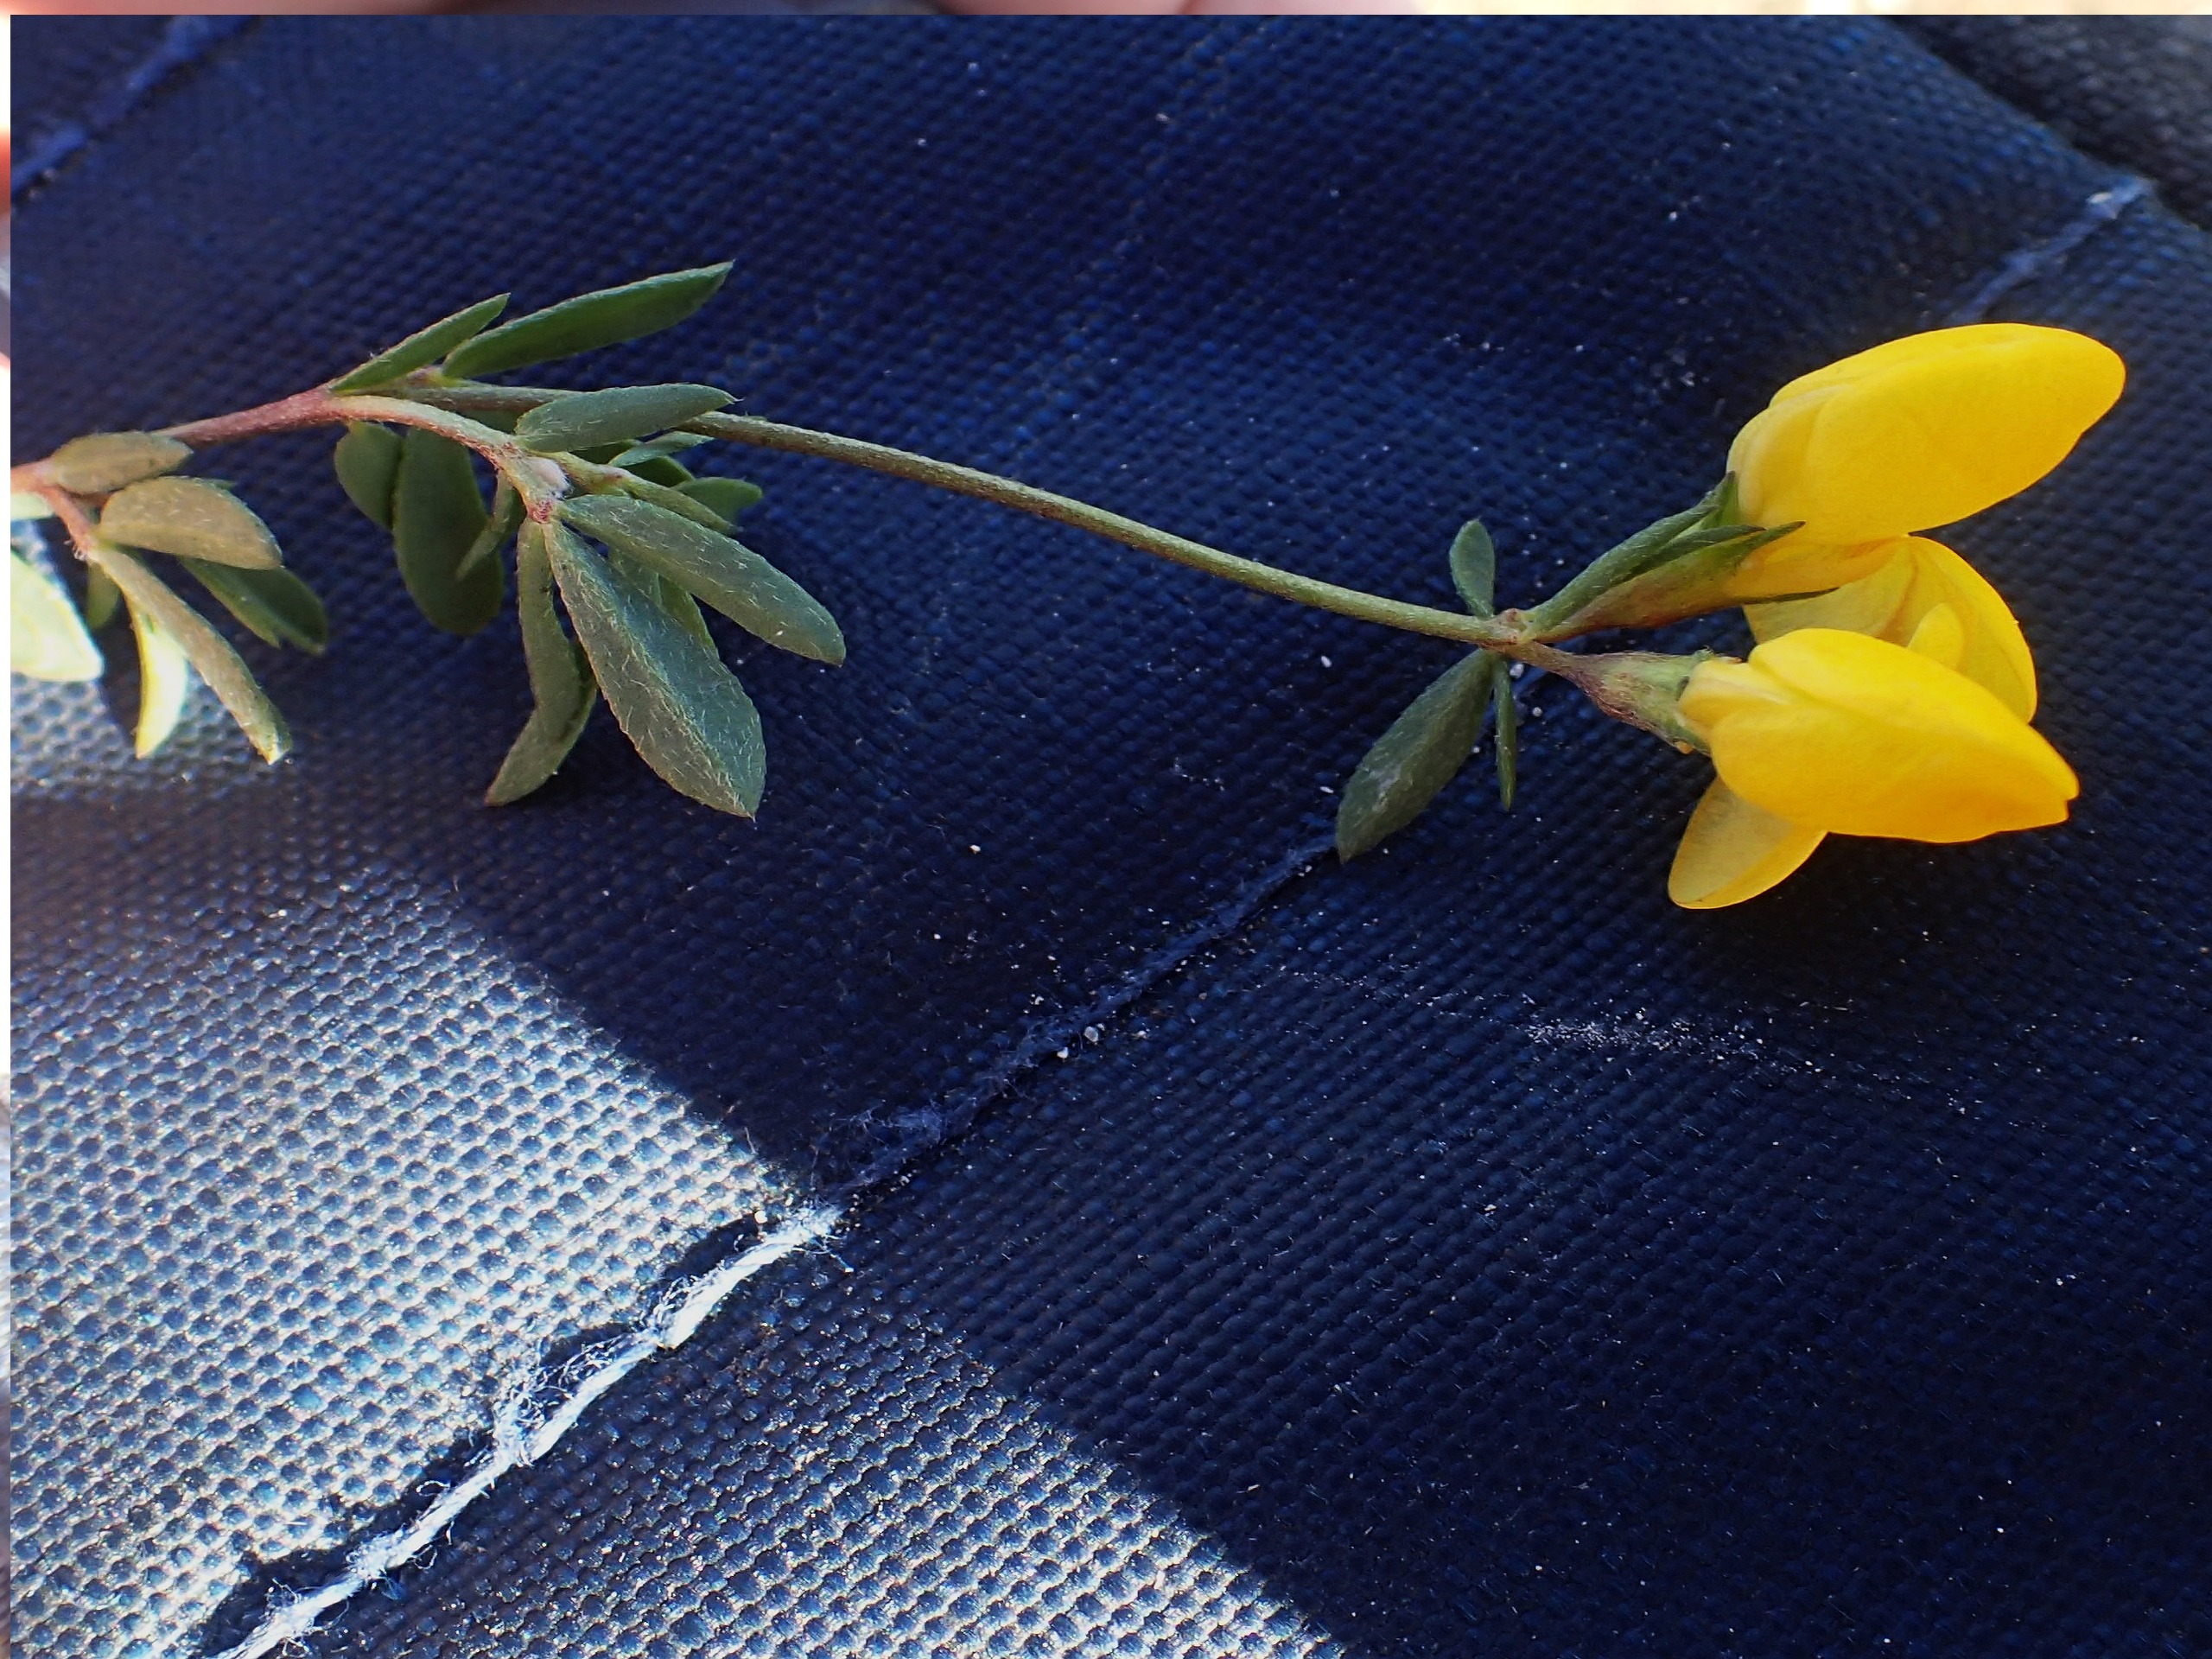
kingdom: Plantae
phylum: Tracheophyta
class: Magnoliopsida
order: Fabales
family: Fabaceae
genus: Lotus
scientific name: Lotus tenuis
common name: Smalbladet kællingetand
